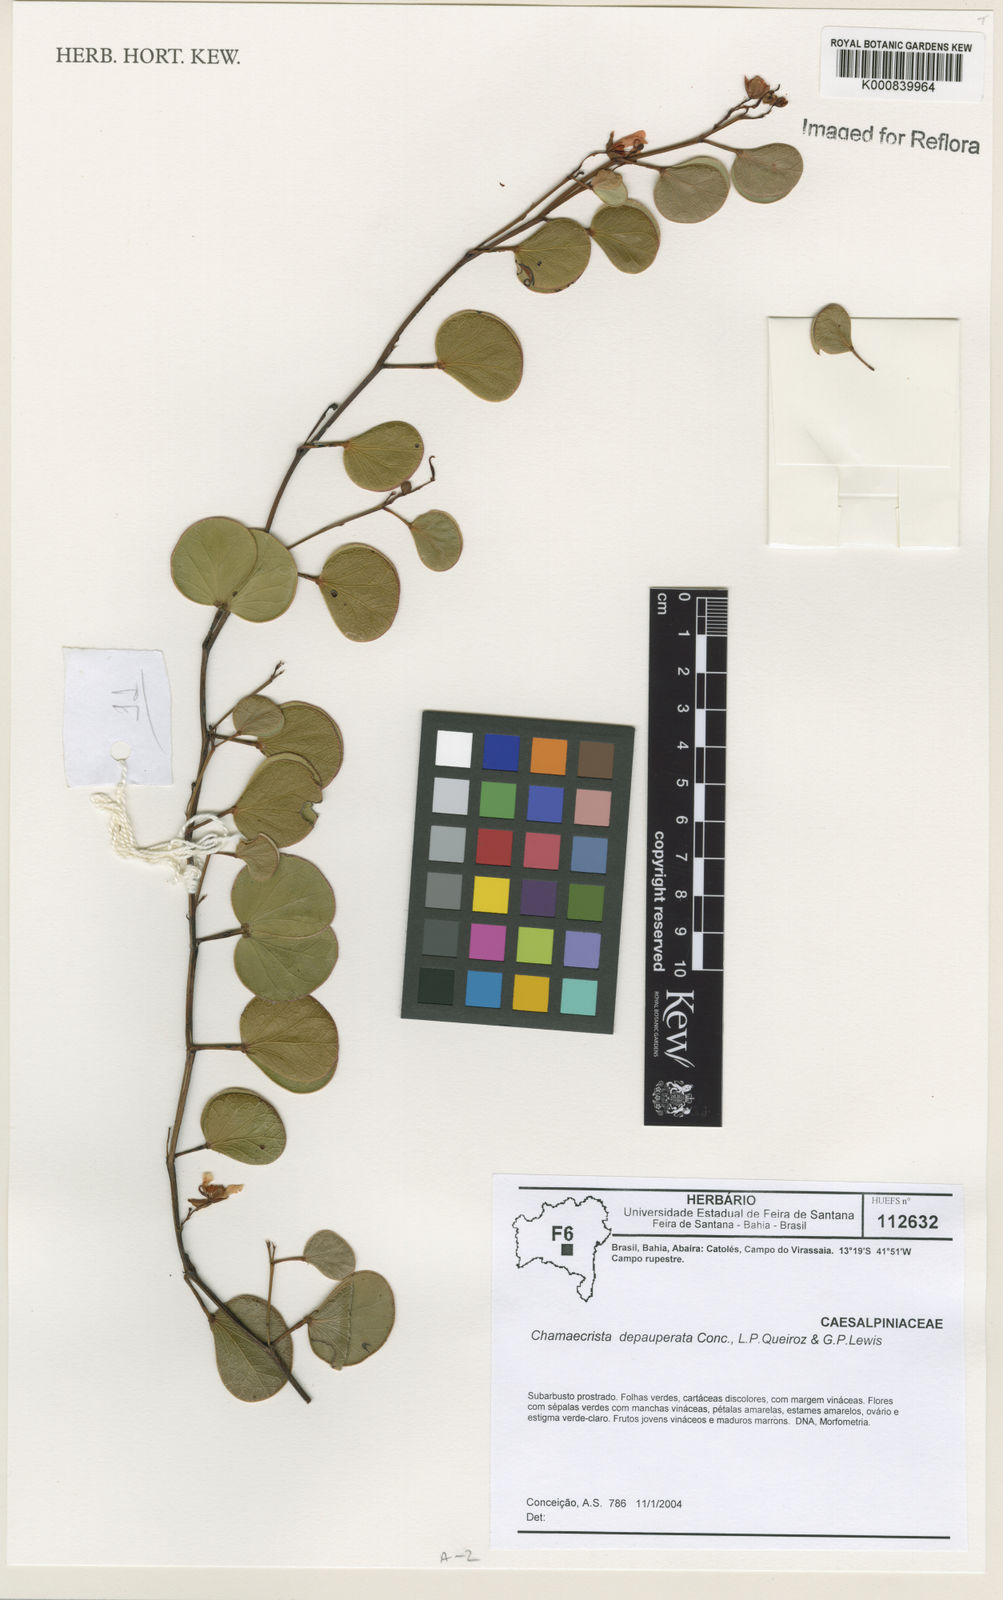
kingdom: Plantae
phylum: Tracheophyta
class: Magnoliopsida
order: Fabales
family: Fabaceae
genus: Chamaecrista
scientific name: Chamaecrista depauperata
